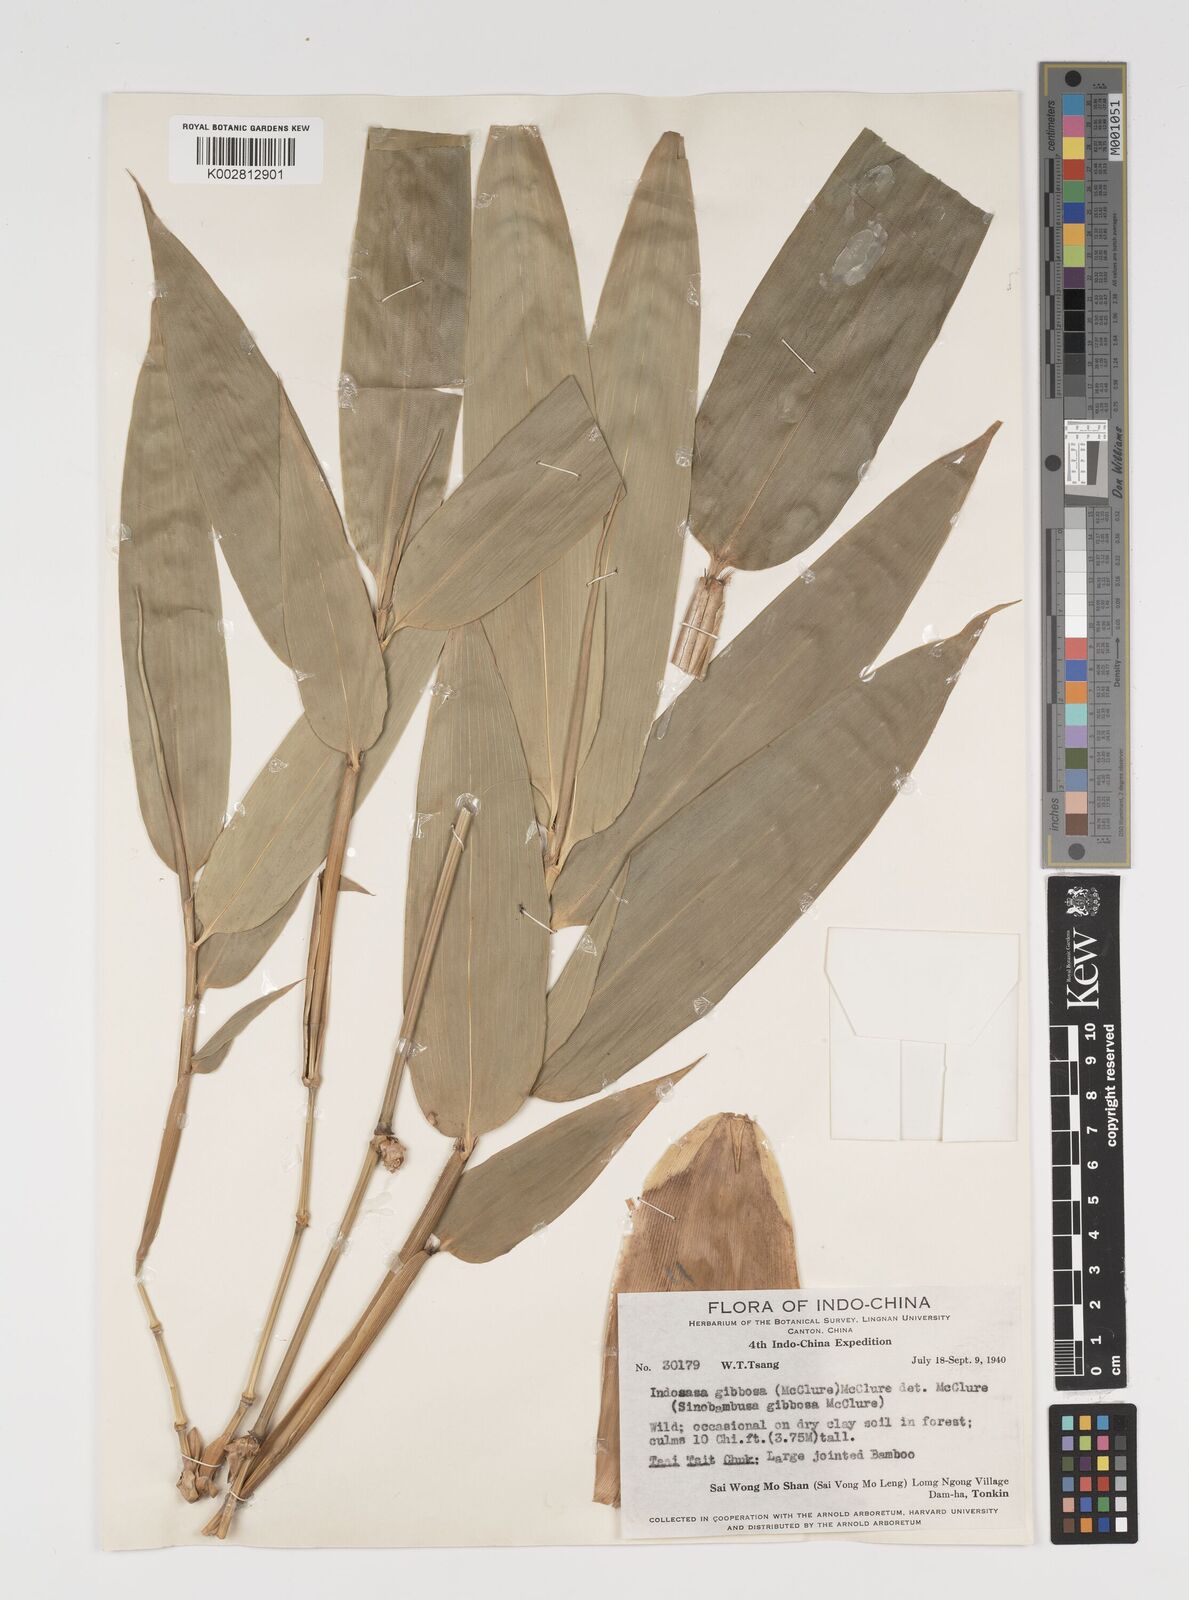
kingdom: Plantae
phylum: Tracheophyta
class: Liliopsida
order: Poales
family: Poaceae
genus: Indosasa
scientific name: Indosasa crassiflora
